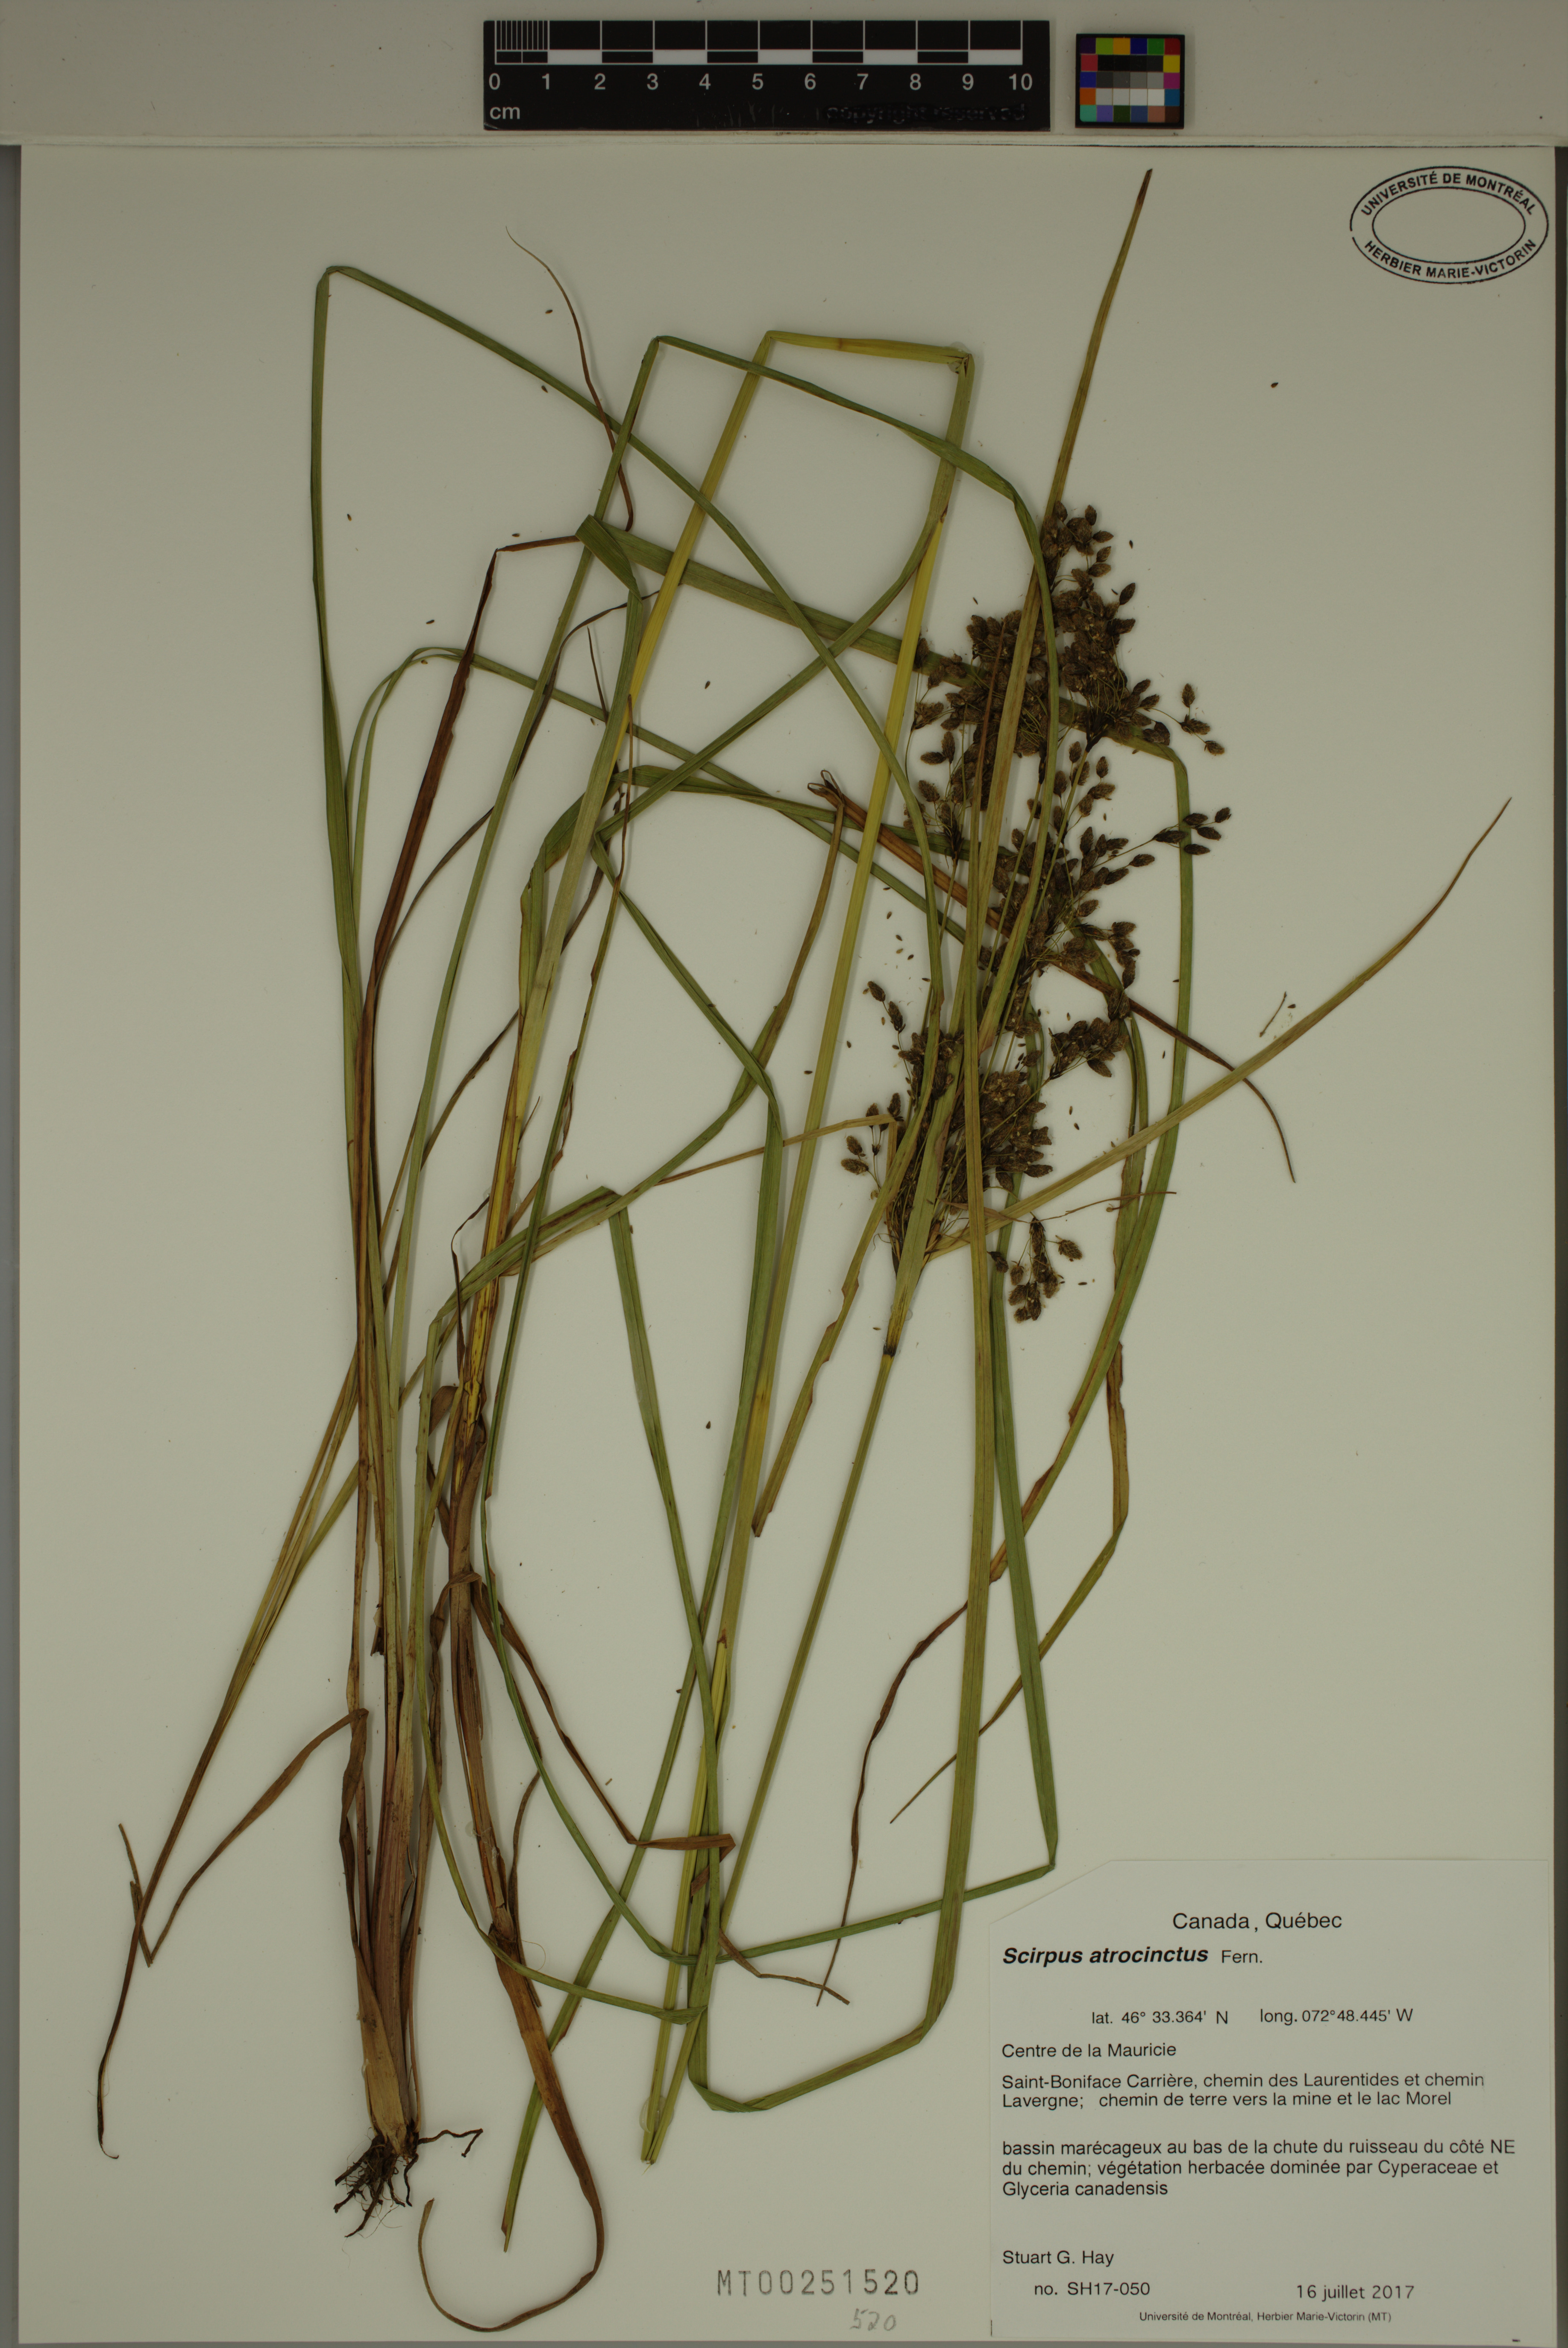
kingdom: Plantae
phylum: Tracheophyta
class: Liliopsida
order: Poales
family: Cyperaceae
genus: Scirpus
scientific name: Scirpus atrocinctus
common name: Black-girdled bulrush
